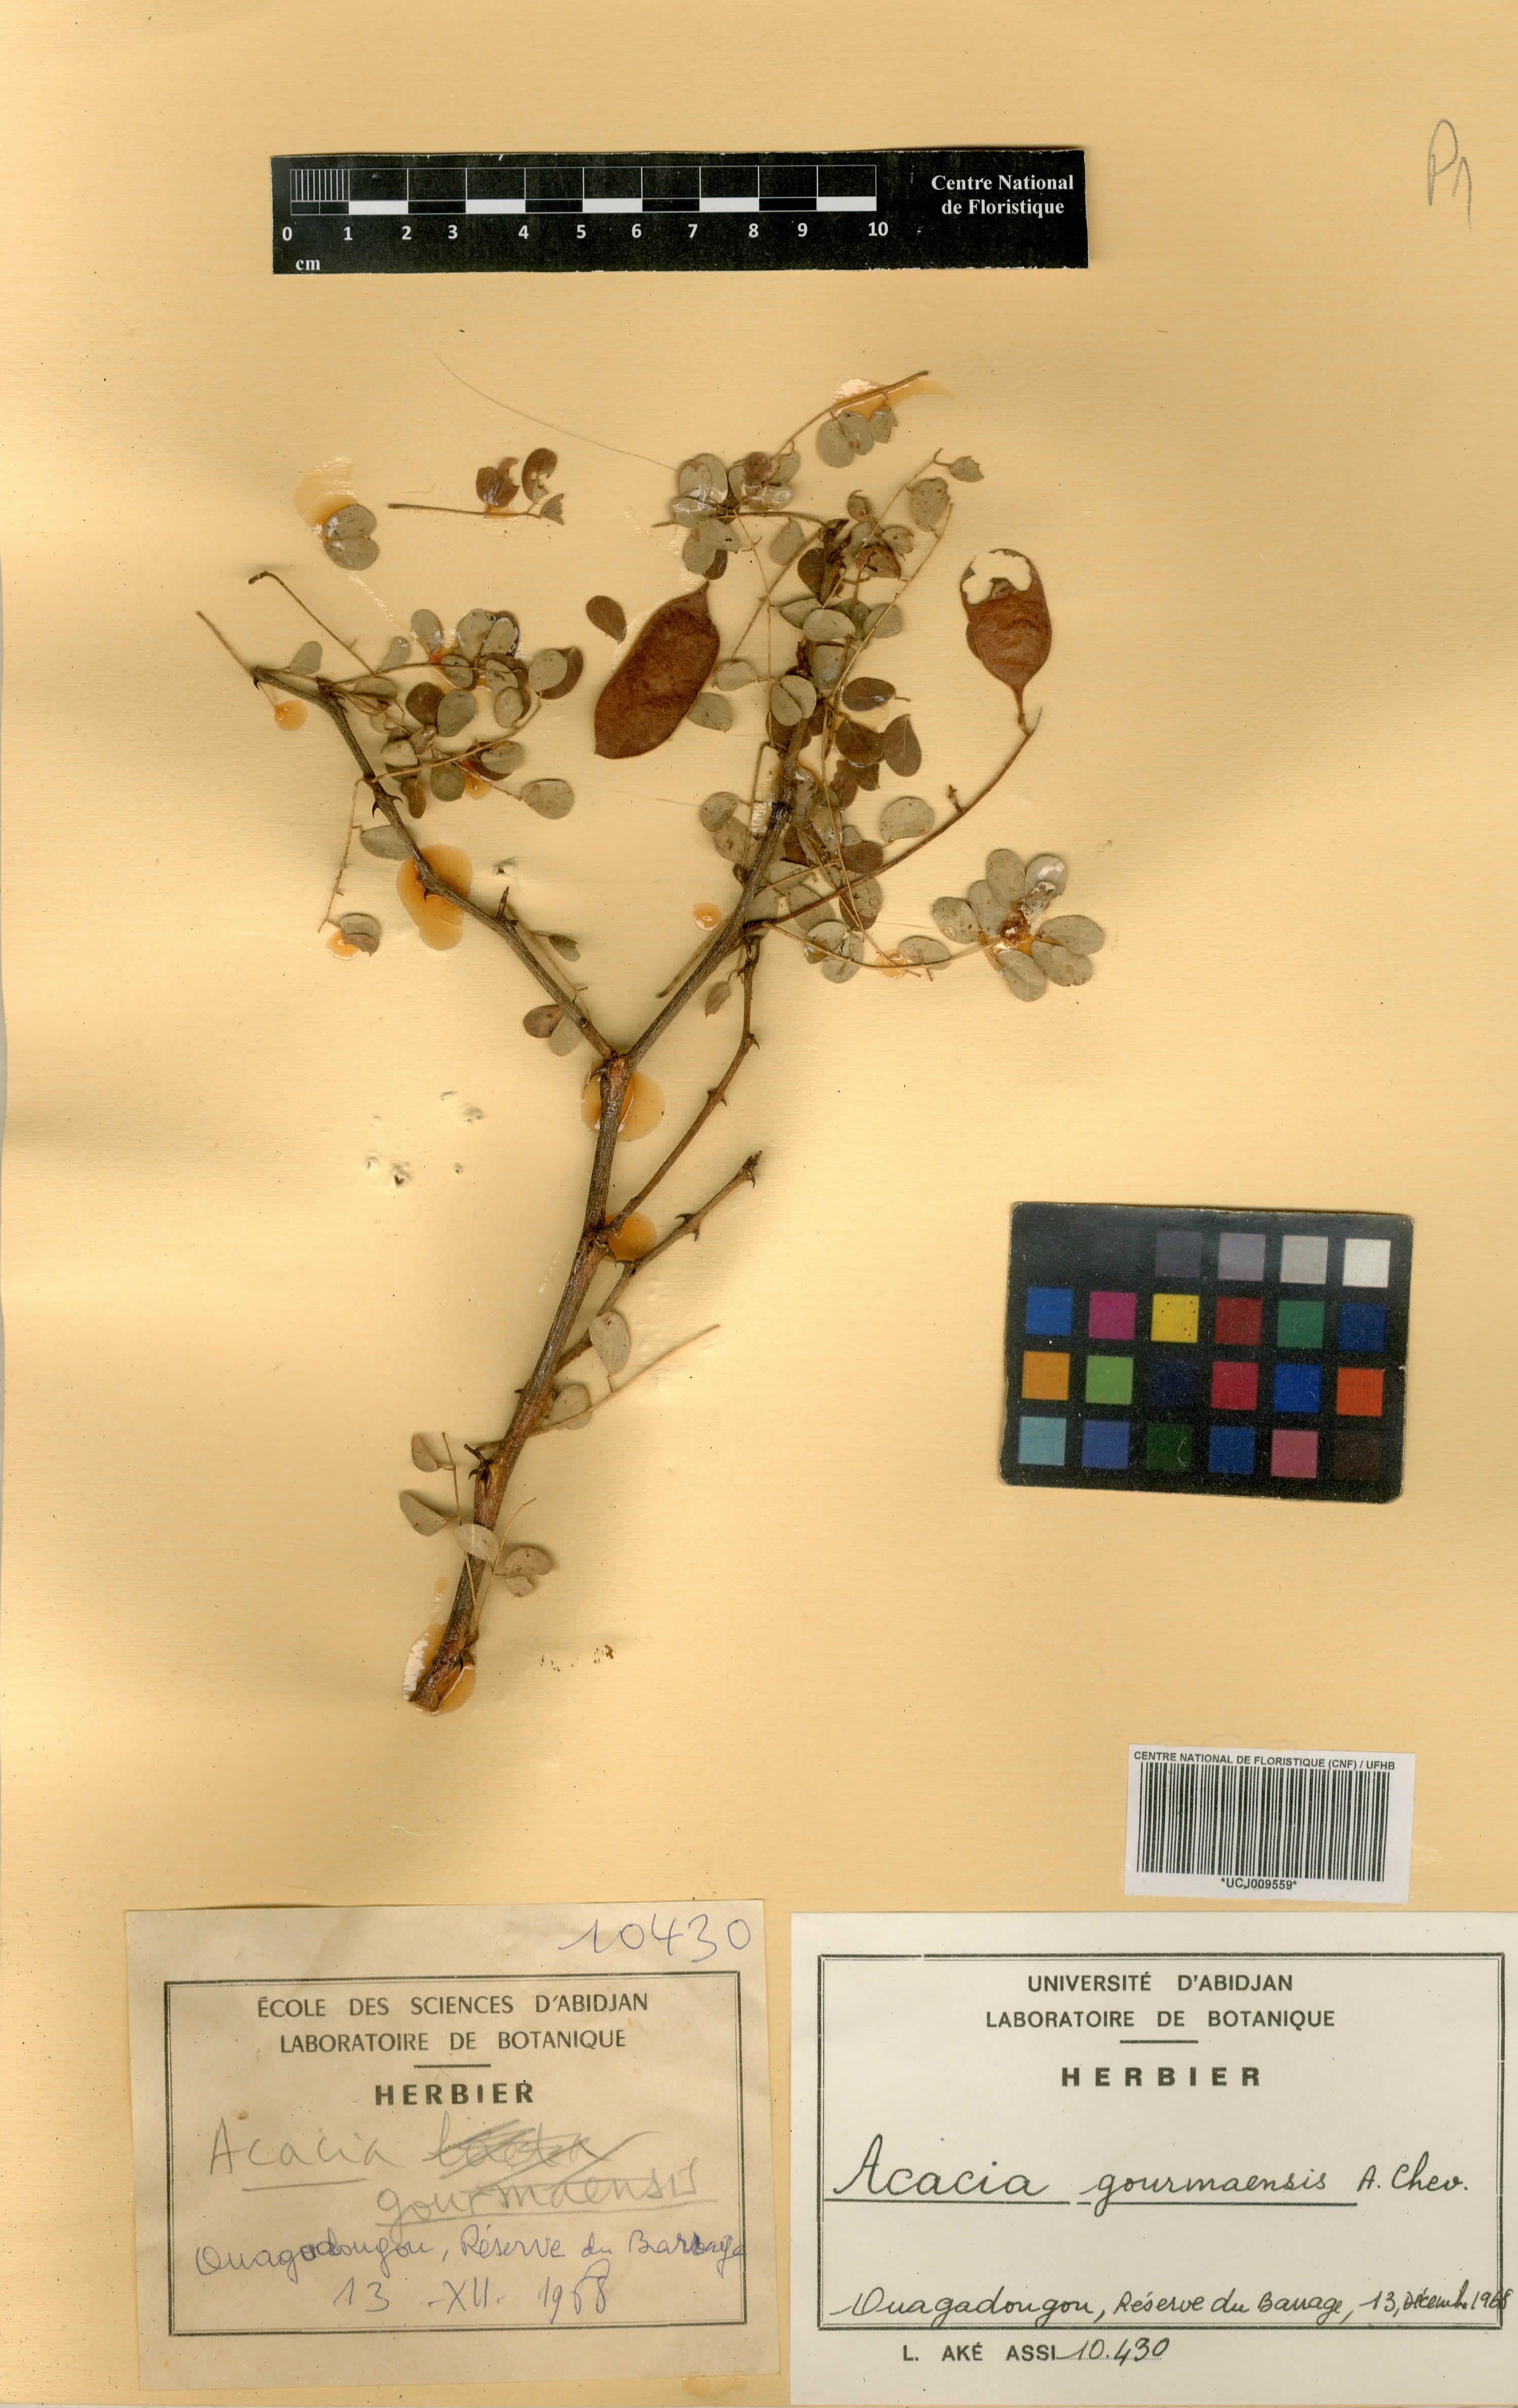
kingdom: Plantae
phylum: Tracheophyta
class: Magnoliopsida
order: Fabales
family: Fabaceae
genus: Senegalia
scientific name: Senegalia gourmaensis
